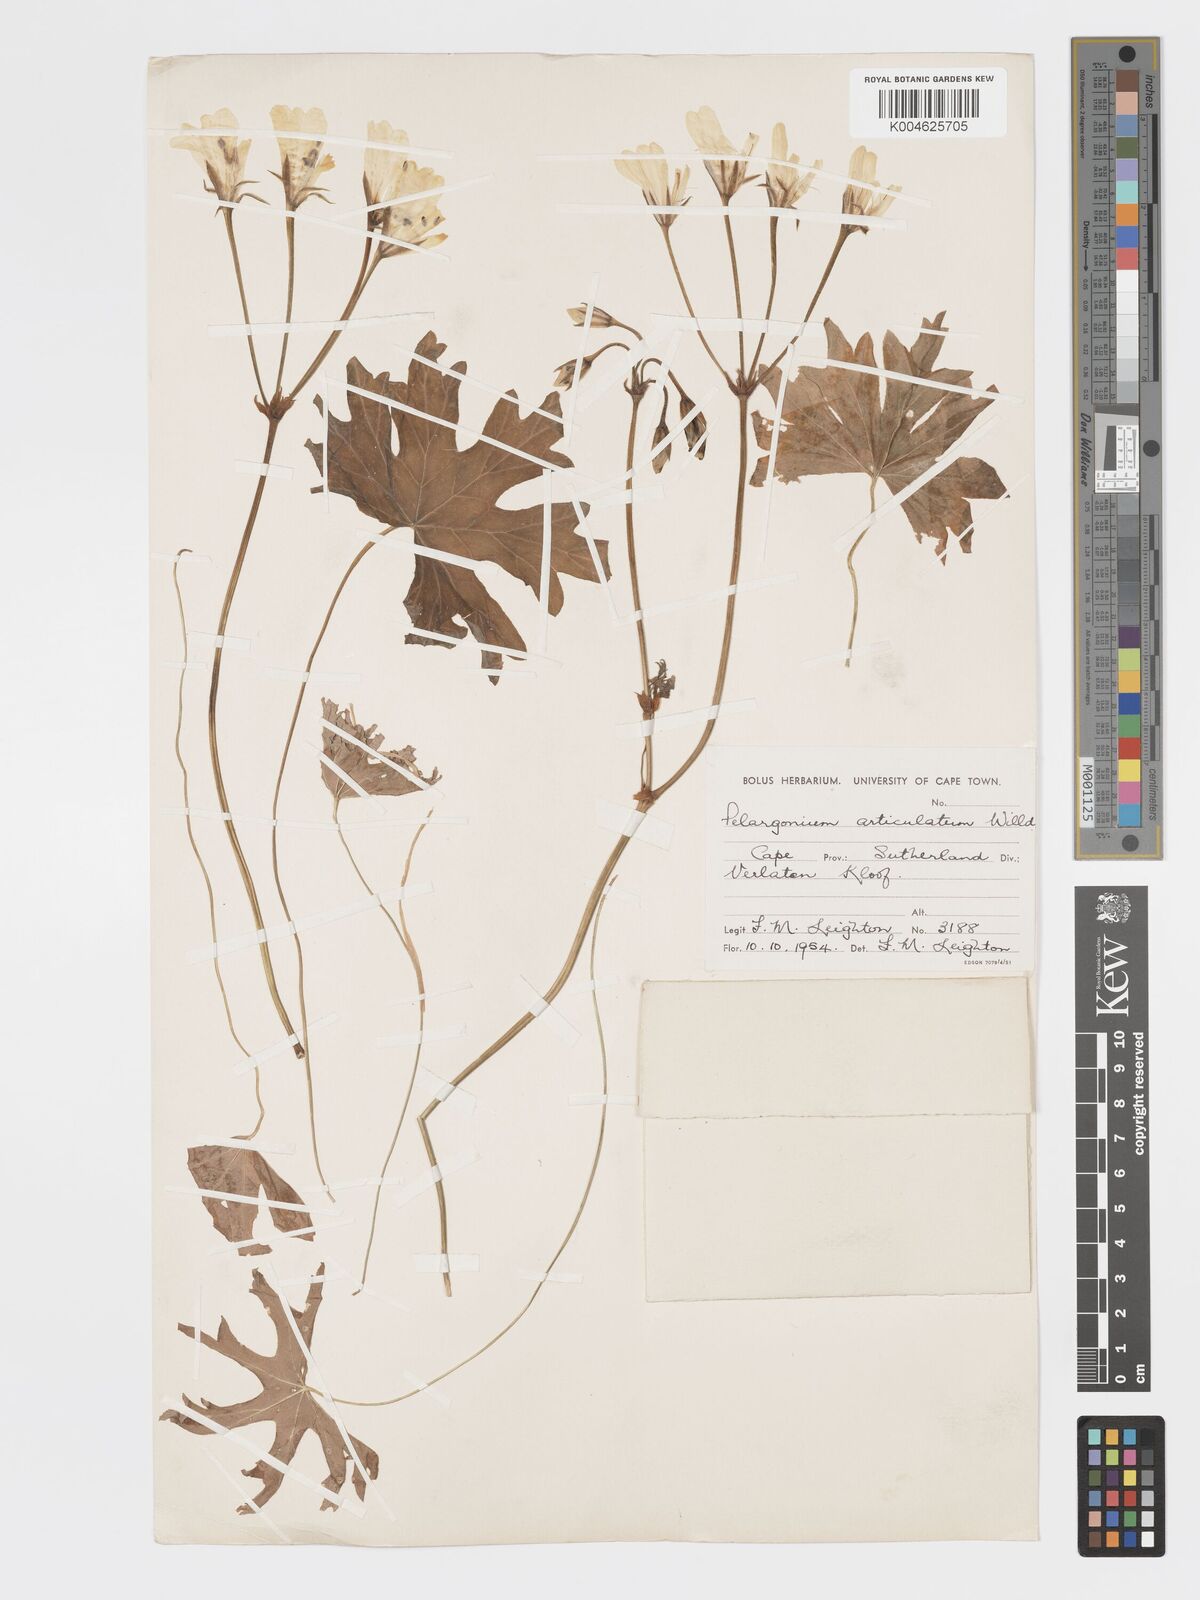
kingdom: Plantae
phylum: Tracheophyta
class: Magnoliopsida
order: Geraniales
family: Geraniaceae
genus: Pelargonium
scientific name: Pelargonium
